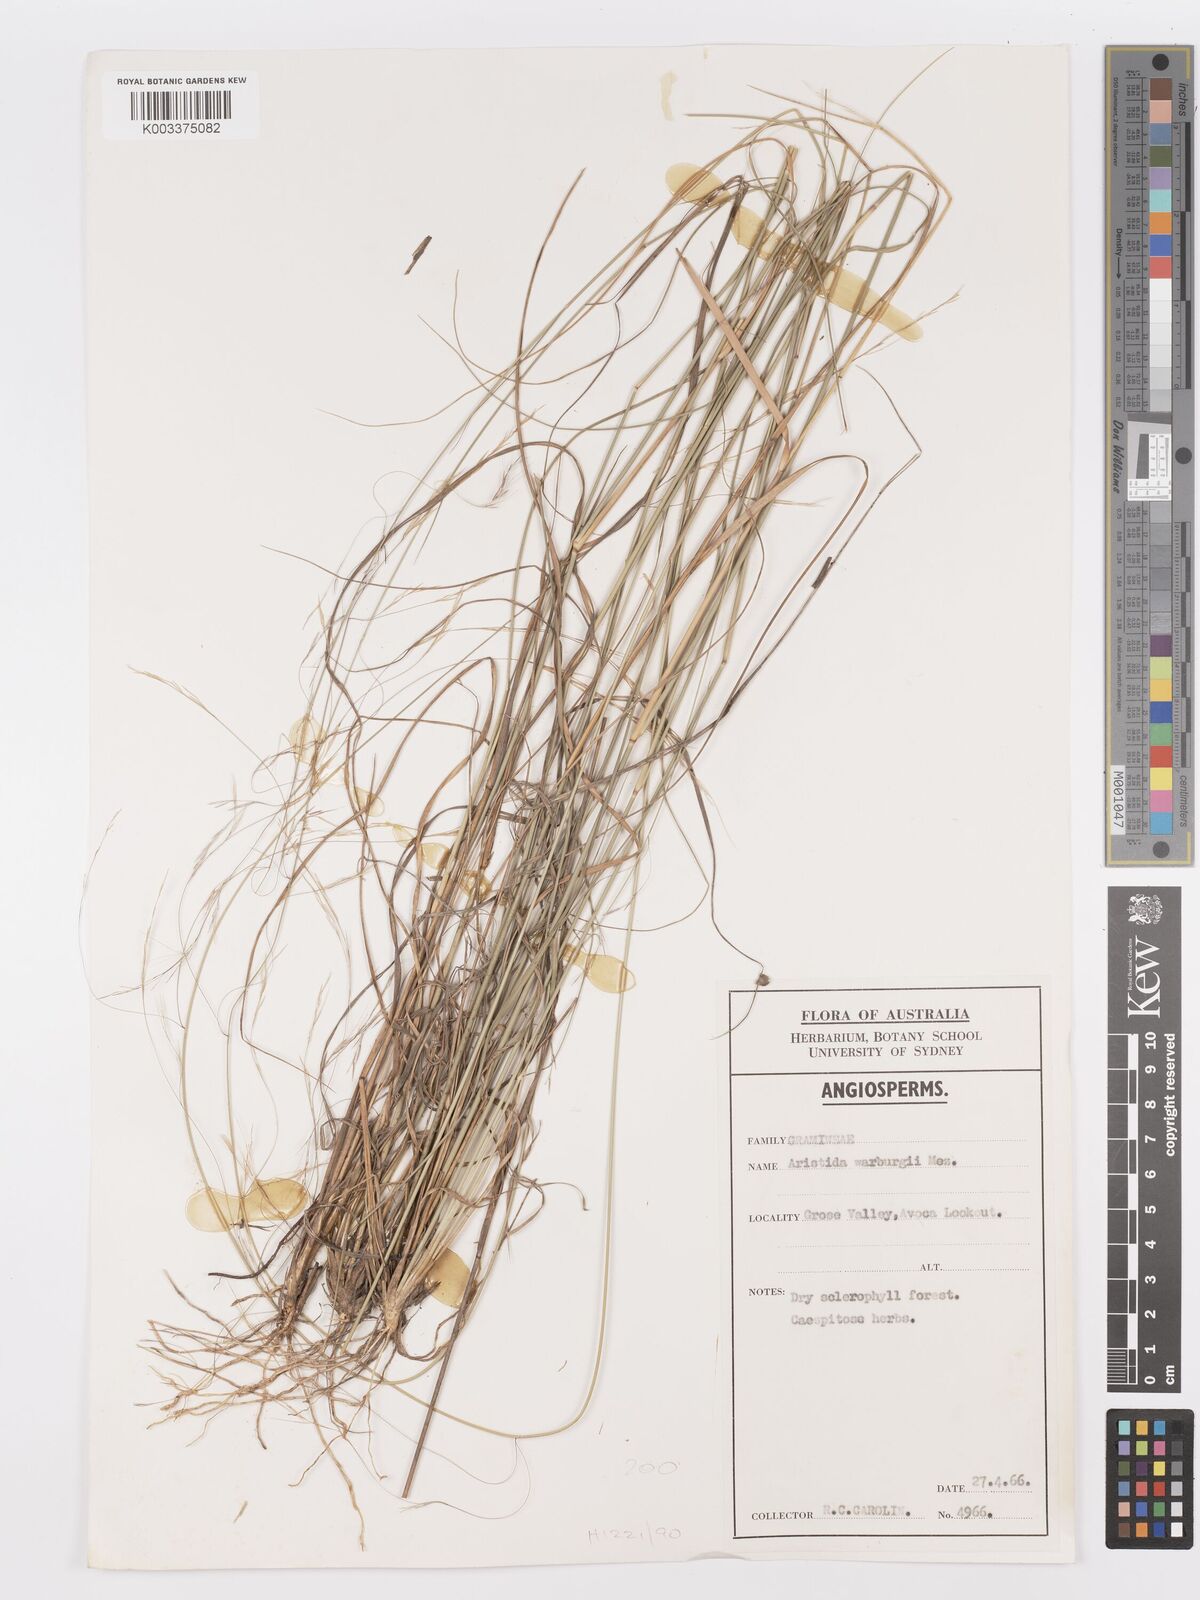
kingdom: Plantae
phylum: Tracheophyta
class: Liliopsida
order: Poales
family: Poaceae
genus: Aristida
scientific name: Aristida warburgii
